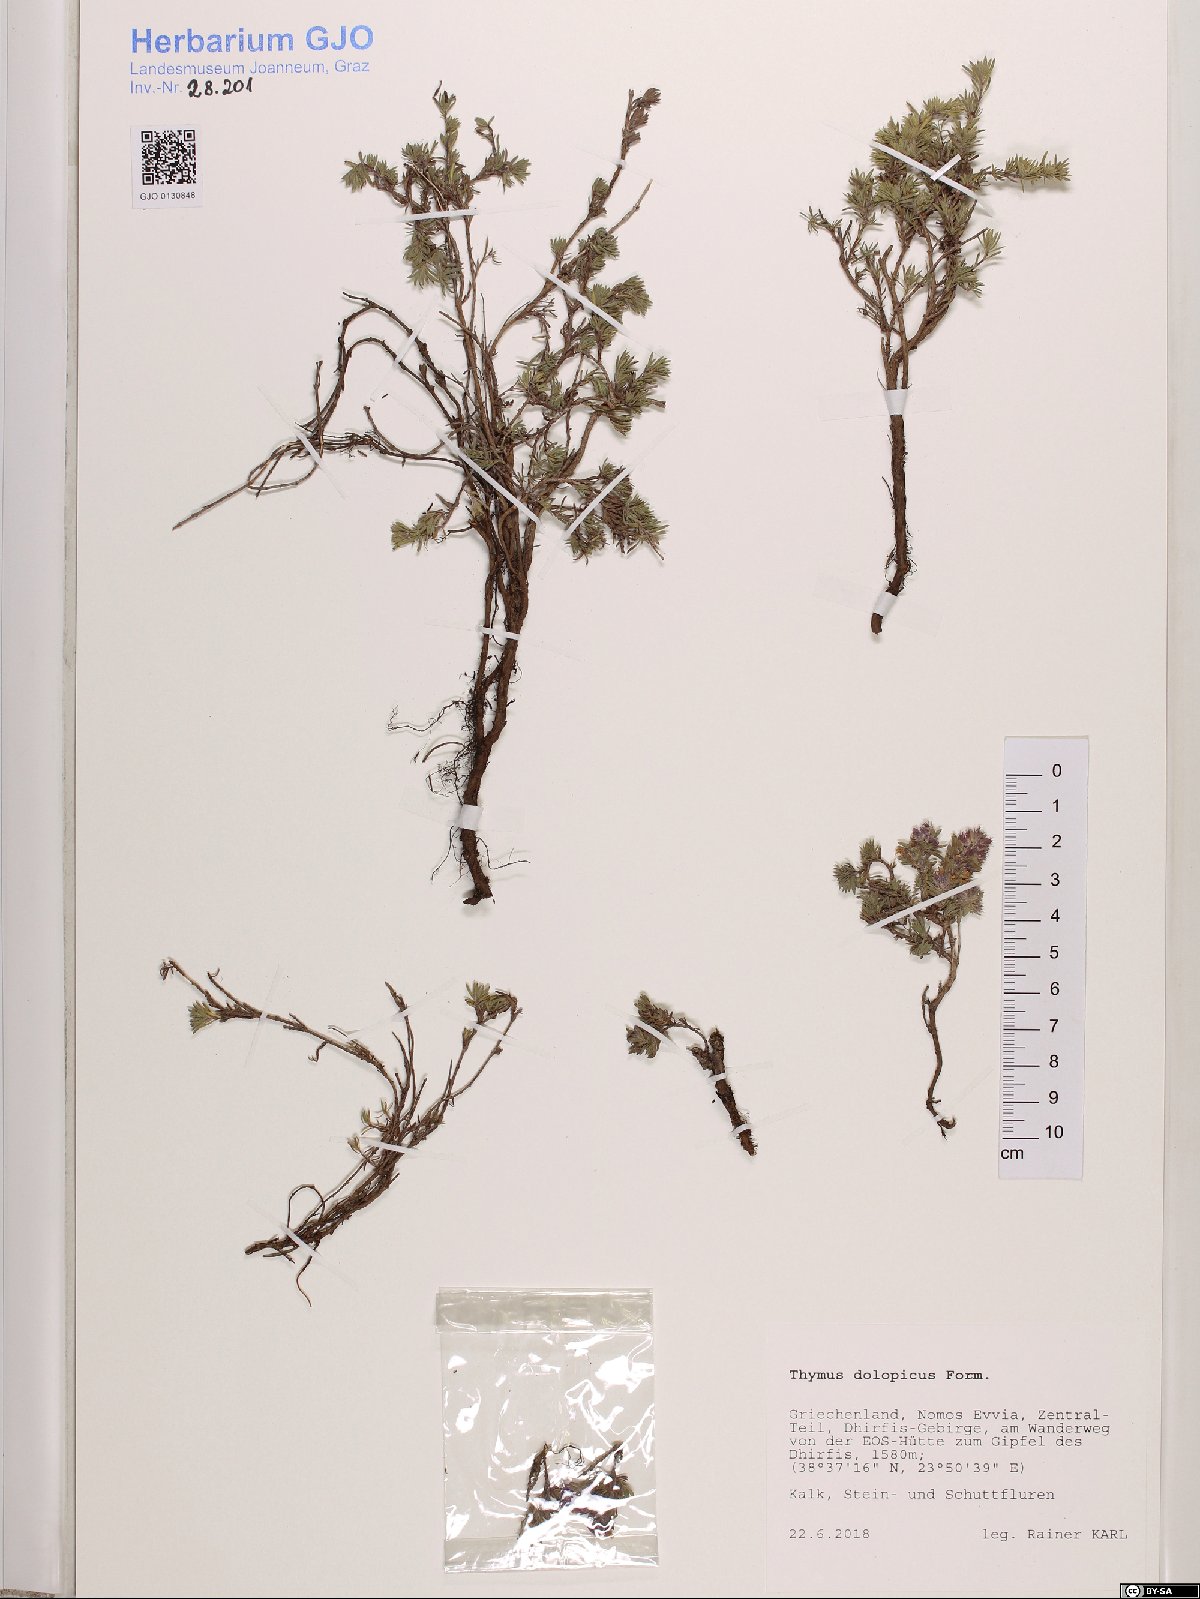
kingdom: Plantae
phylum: Tracheophyta
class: Magnoliopsida
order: Lamiales
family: Lamiaceae
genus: Thymus
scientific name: Thymus dolopicus
